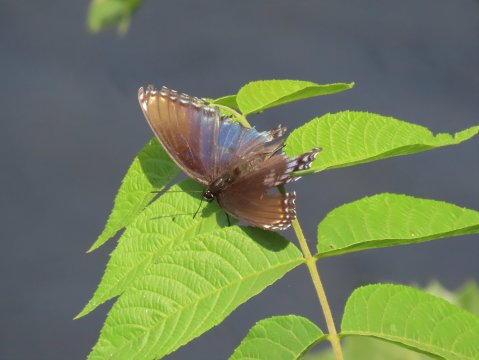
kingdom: Animalia
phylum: Arthropoda
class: Insecta
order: Lepidoptera
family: Nymphalidae
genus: Limenitis
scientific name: Limenitis arthemis
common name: Red-spotted Admiral
